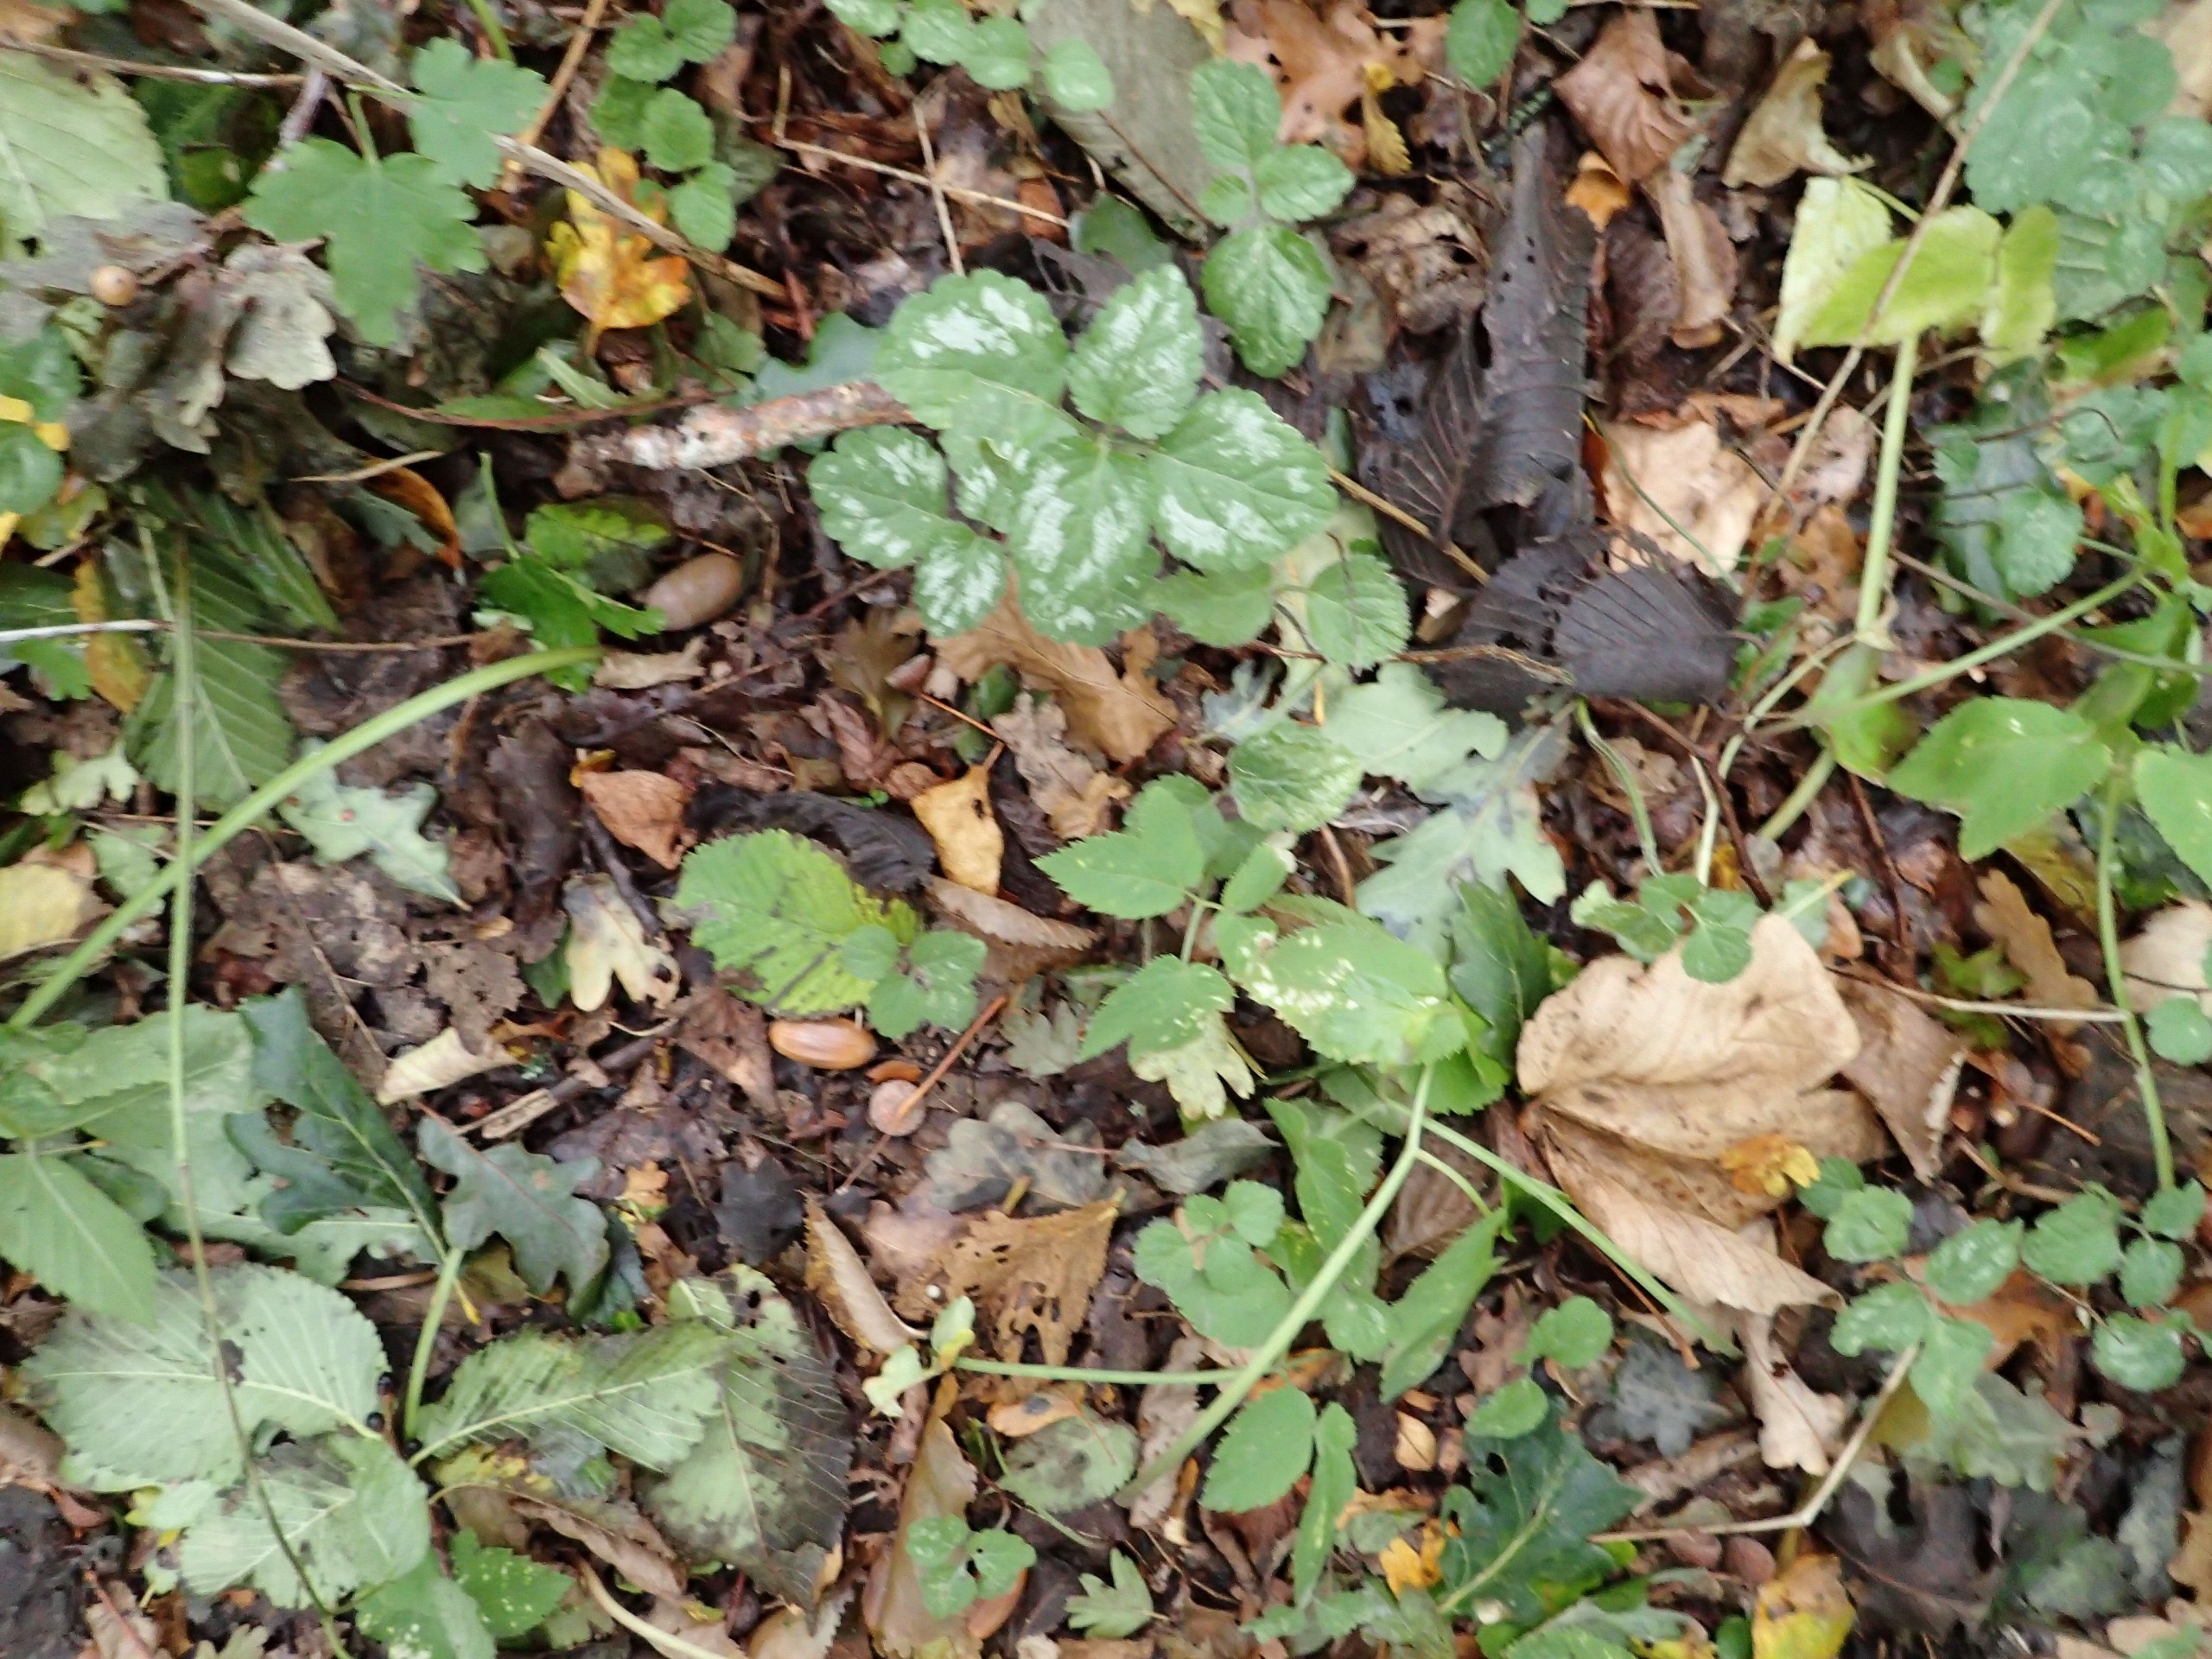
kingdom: Plantae
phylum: Tracheophyta
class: Magnoliopsida
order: Lamiales
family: Lamiaceae
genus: Lamium
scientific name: Lamium galeobdolon
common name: Have-guldnælde
